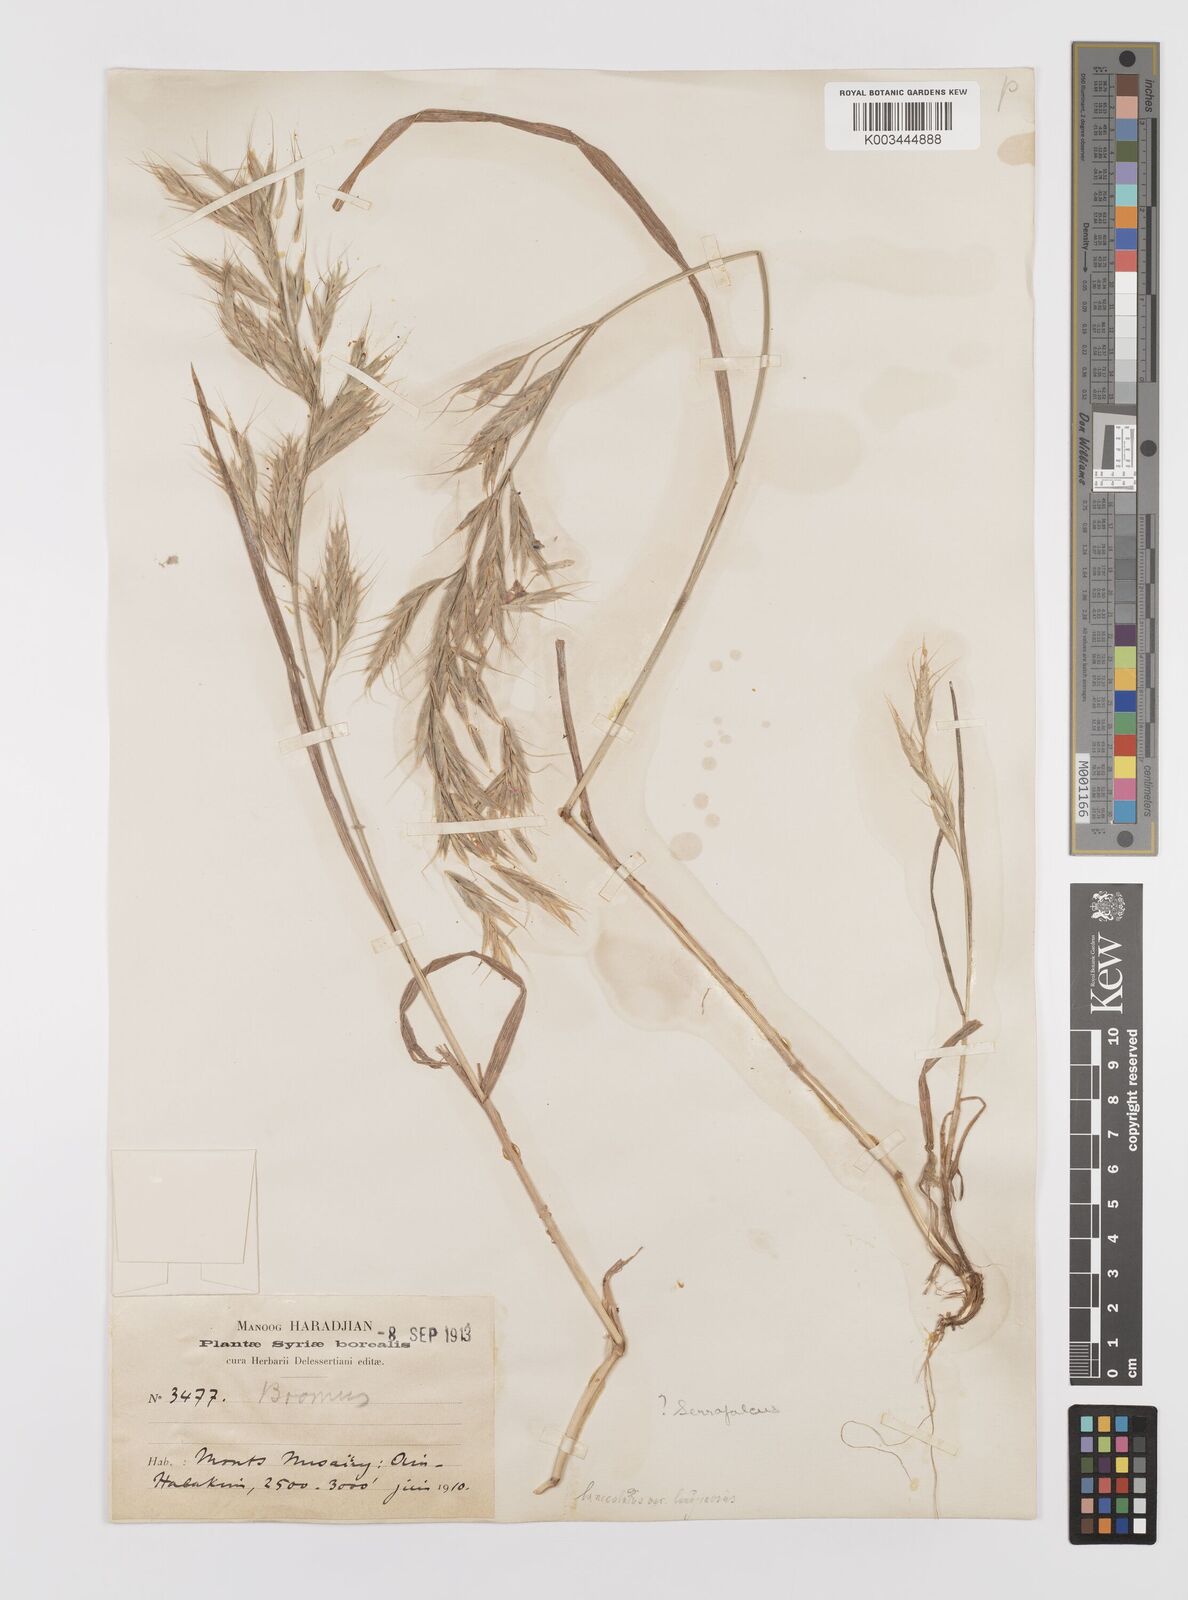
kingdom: Plantae
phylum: Tracheophyta
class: Liliopsida
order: Poales
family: Poaceae
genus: Bromus
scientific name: Bromus lanceolatus
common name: Mediterranean brome
